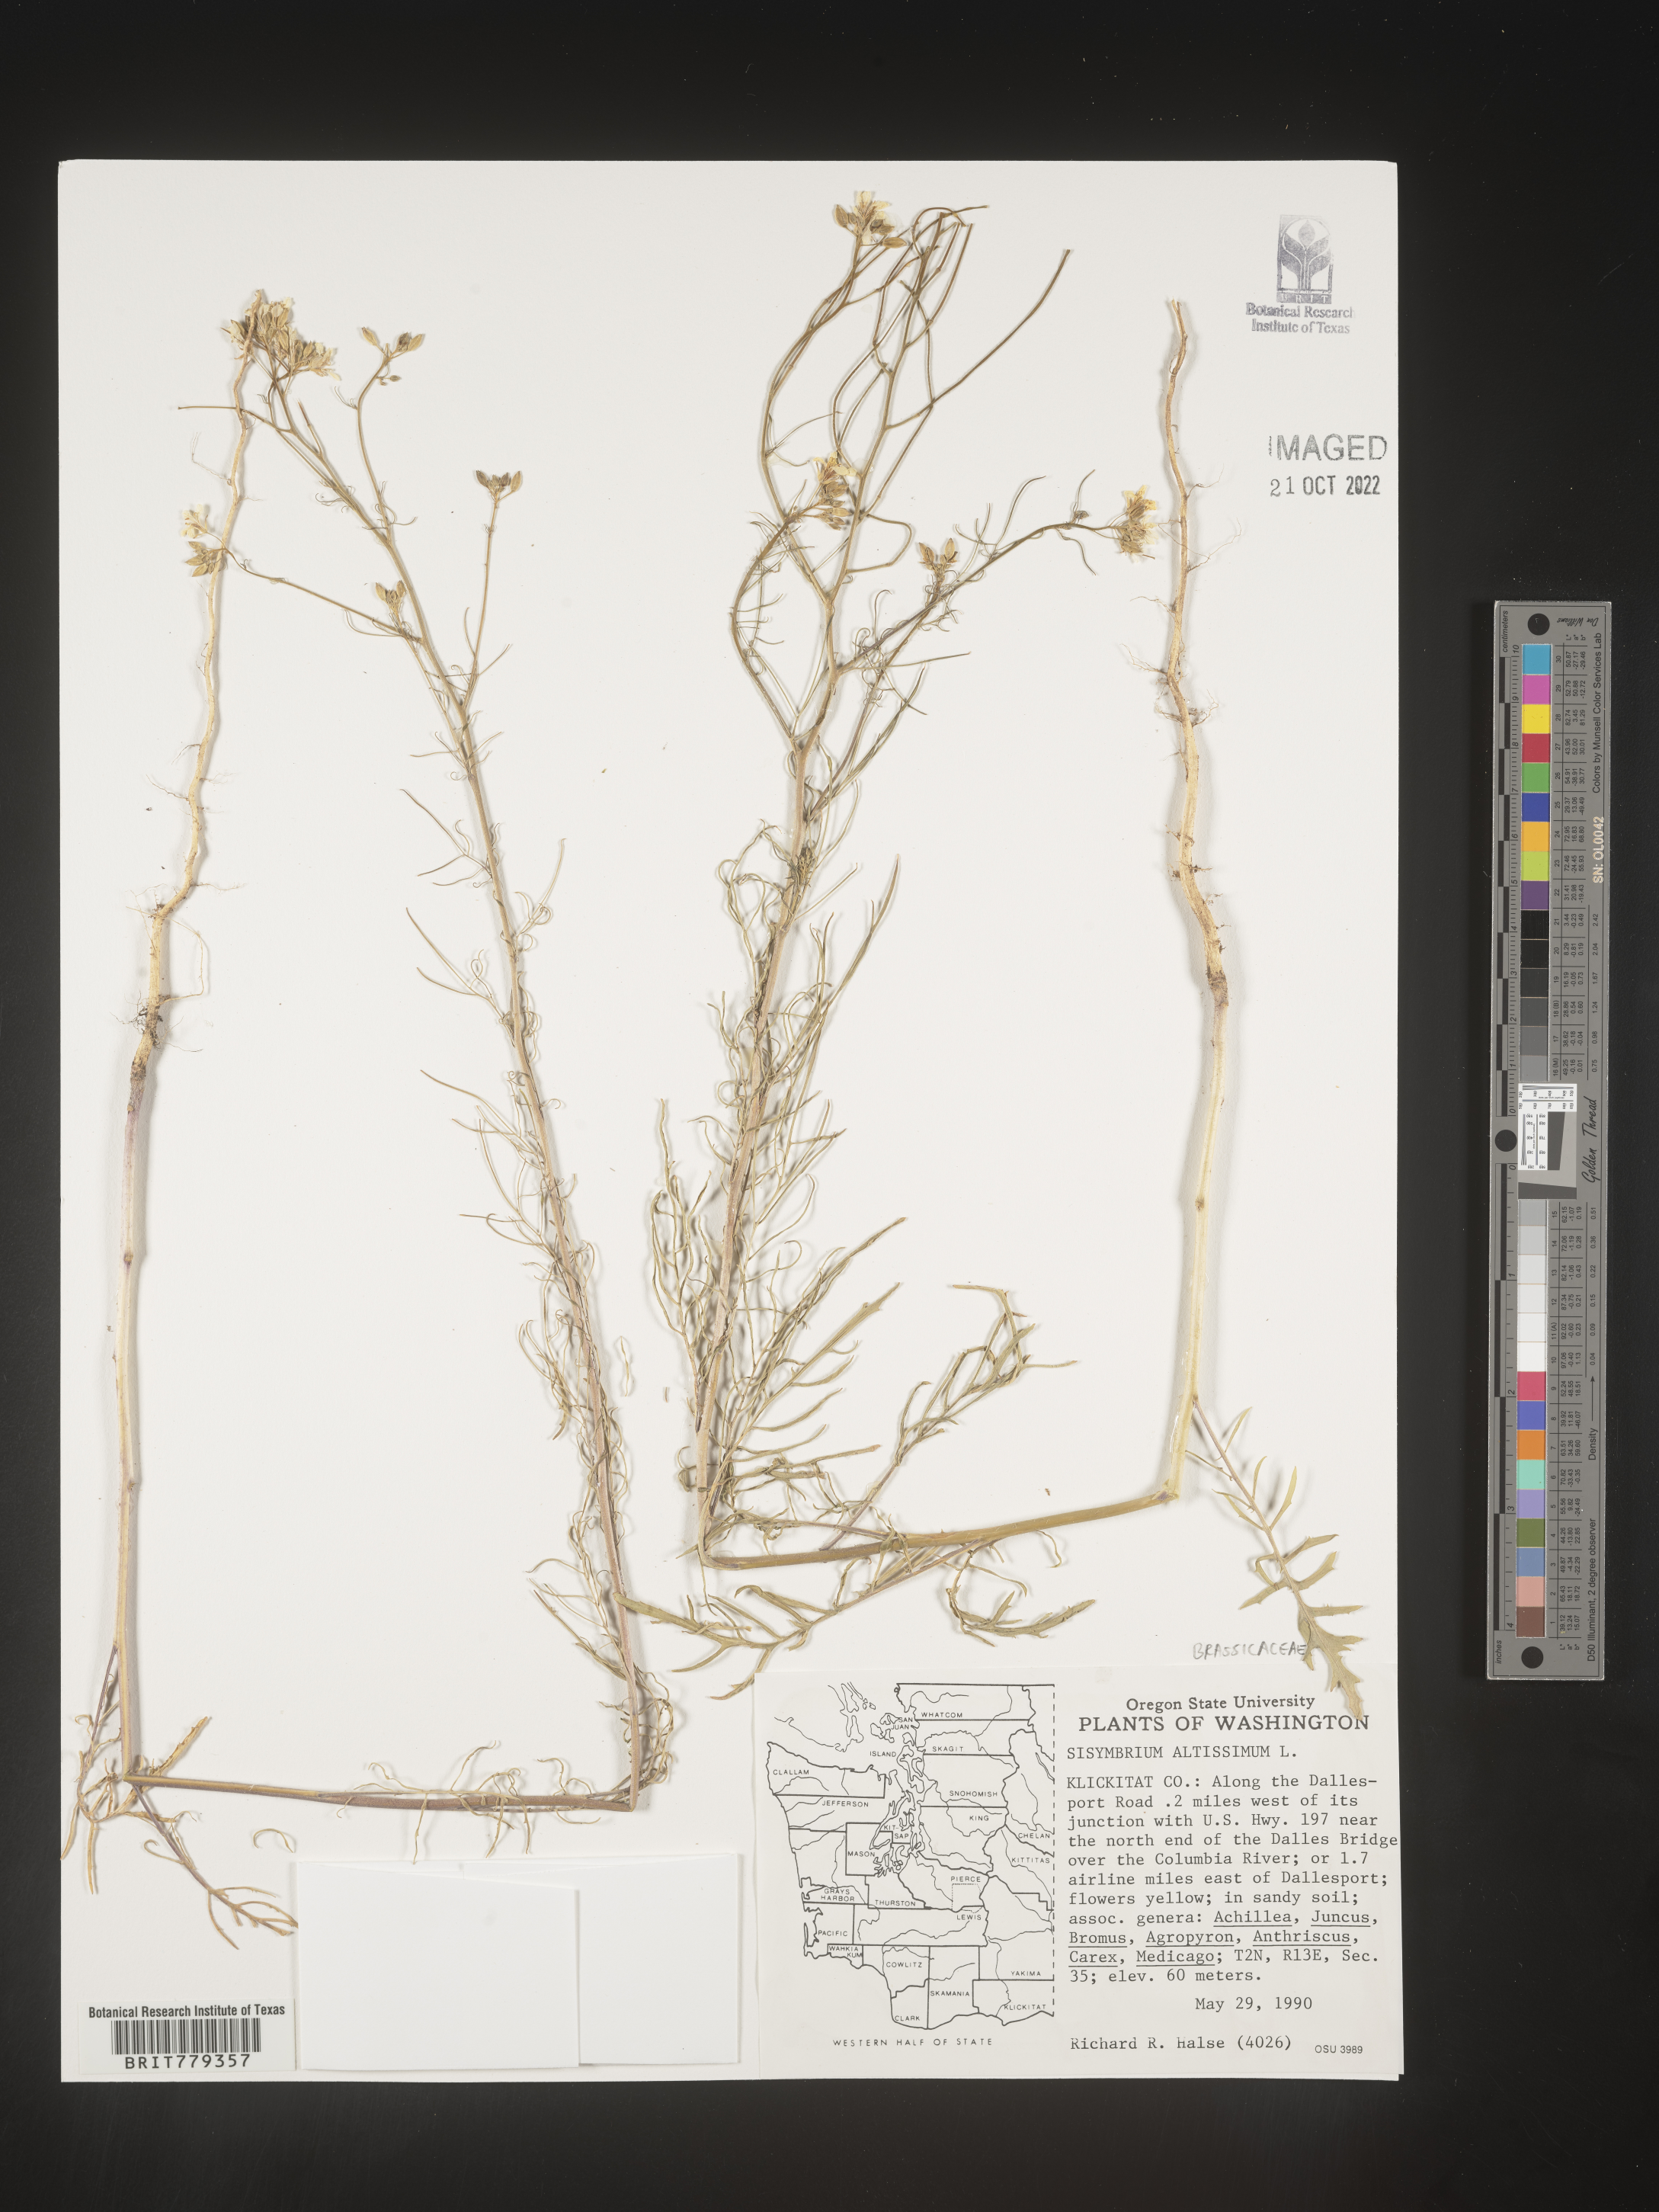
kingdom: Plantae
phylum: Tracheophyta
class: Magnoliopsida
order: Brassicales
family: Brassicaceae
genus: Sisymbrium
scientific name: Sisymbrium altissimum
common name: Tall rocket
